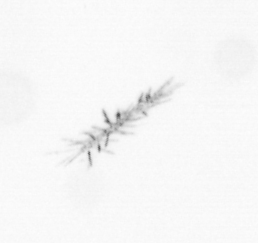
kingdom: Chromista
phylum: Ochrophyta
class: Bacillariophyceae
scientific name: Bacillariophyceae
